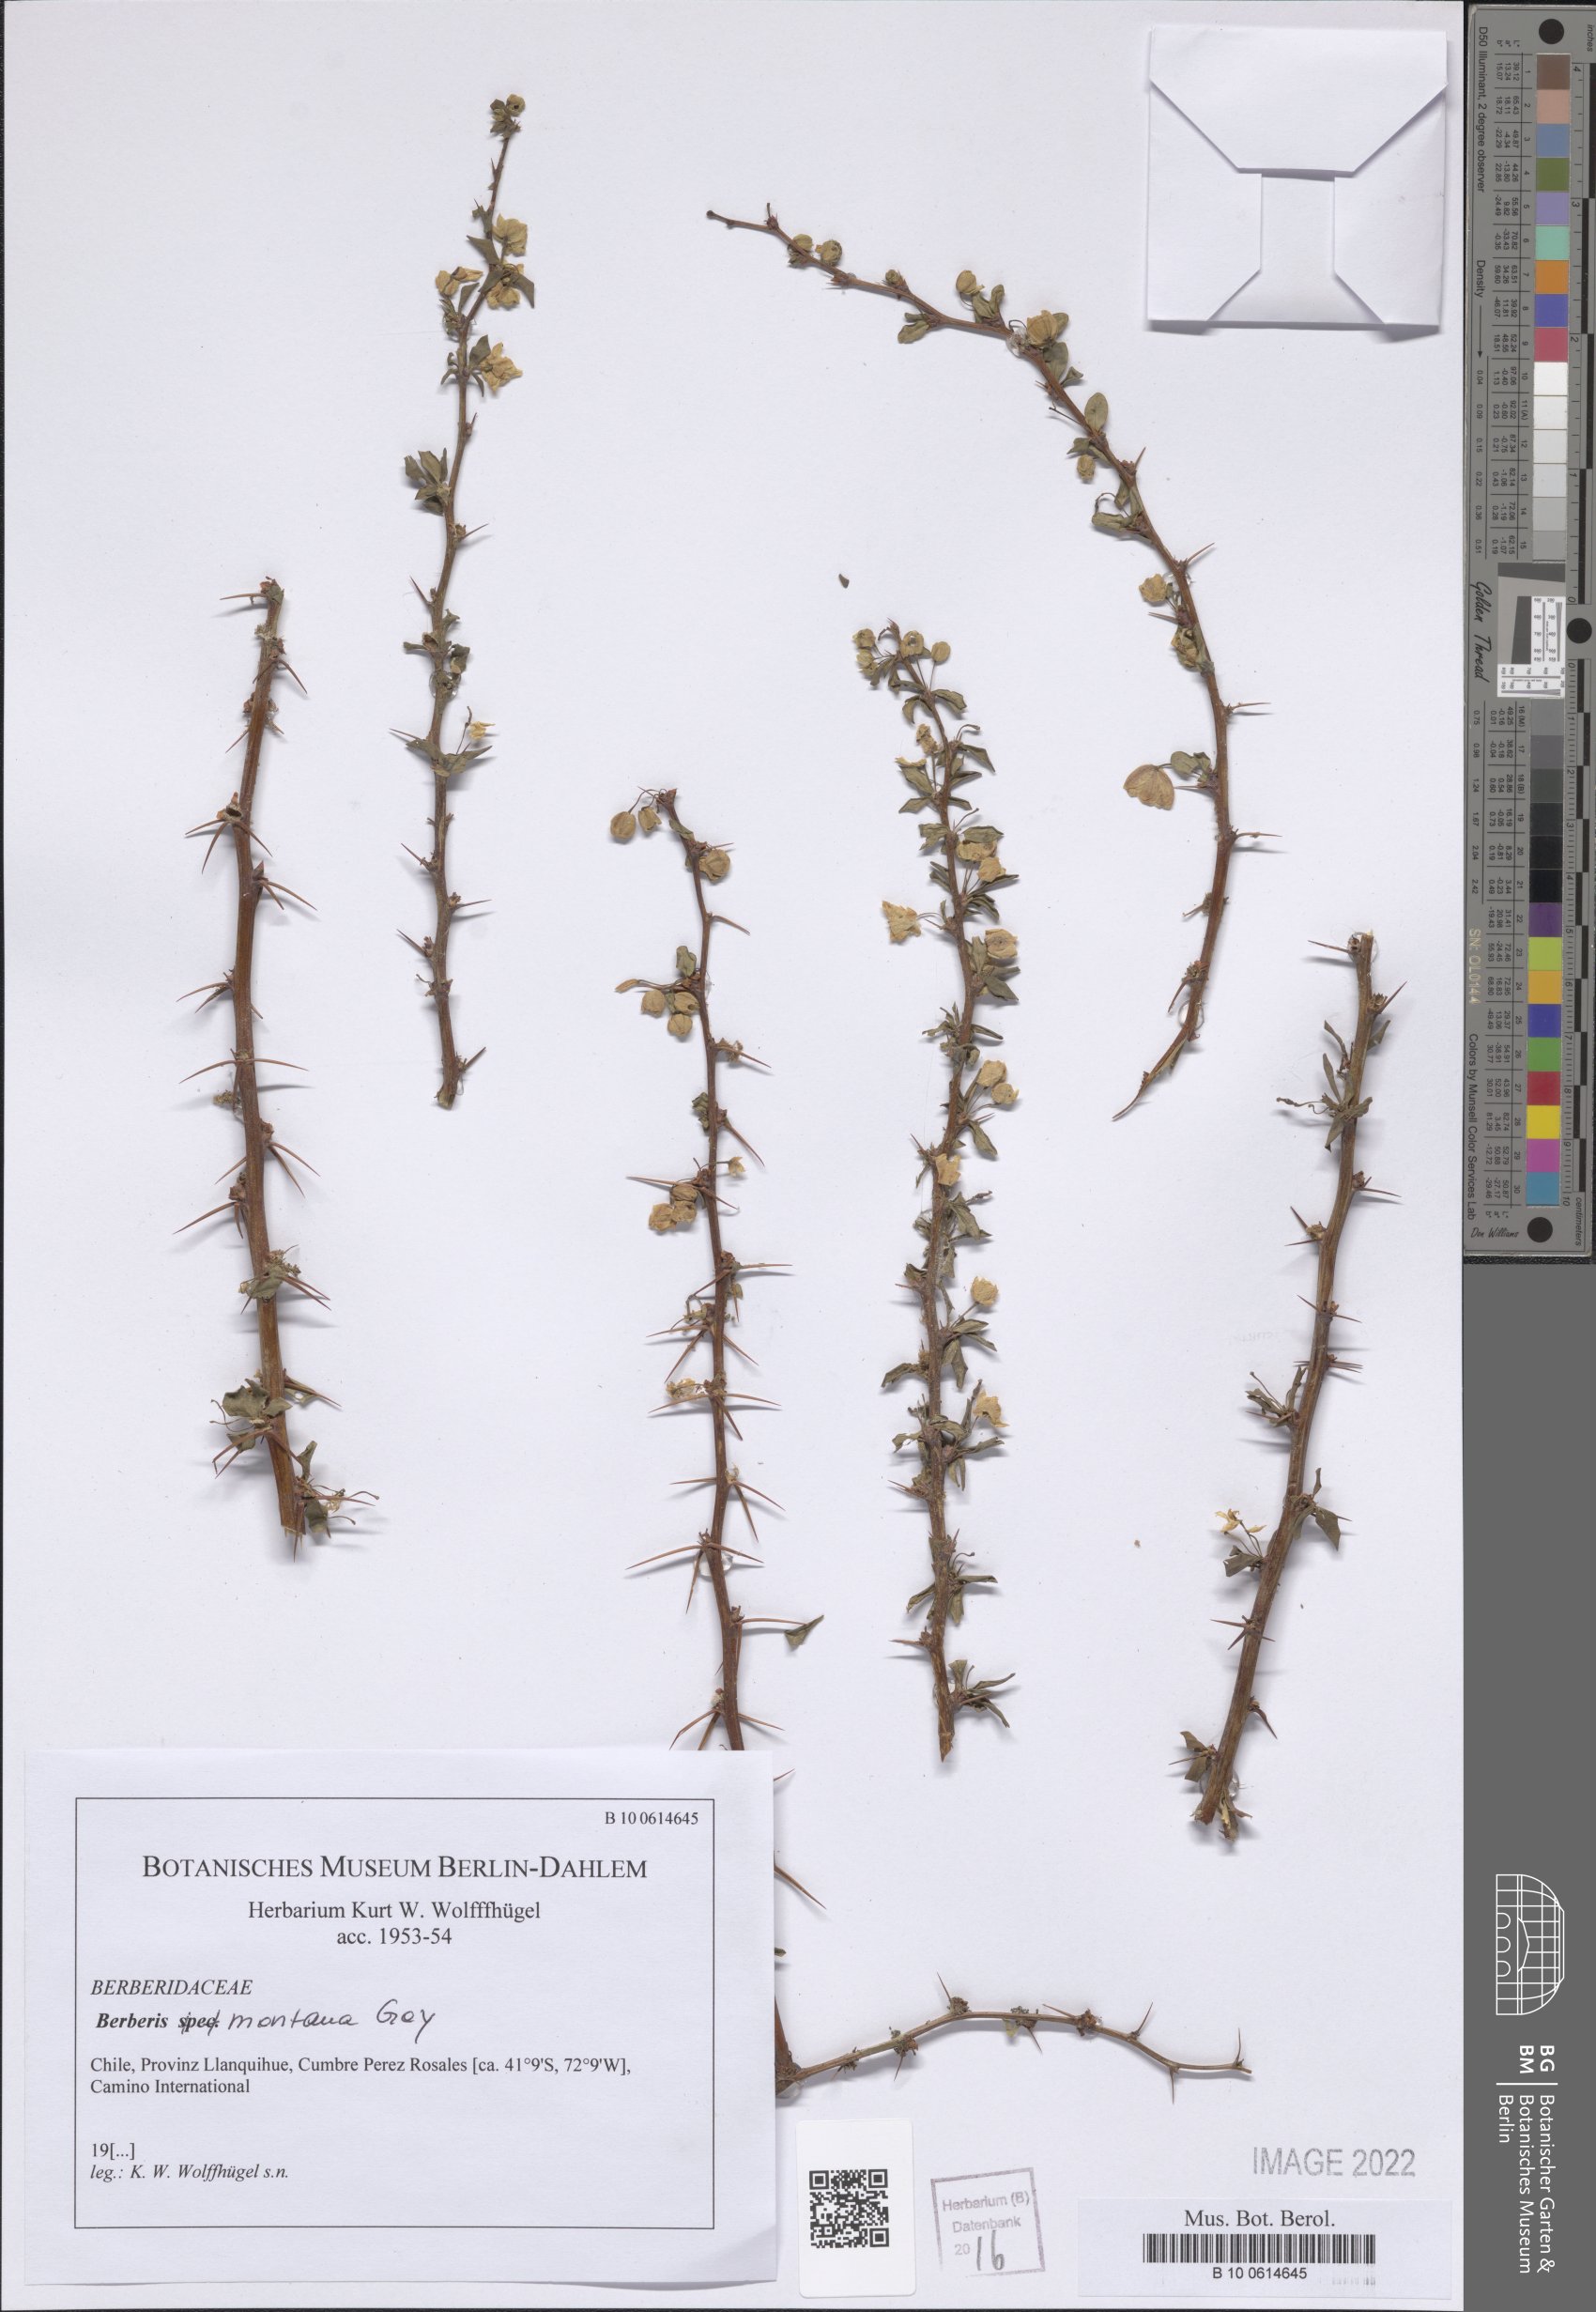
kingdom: Plantae
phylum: Tracheophyta
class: Magnoliopsida
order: Ranunculales
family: Berberidaceae
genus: Berberis
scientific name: Berberis montana
